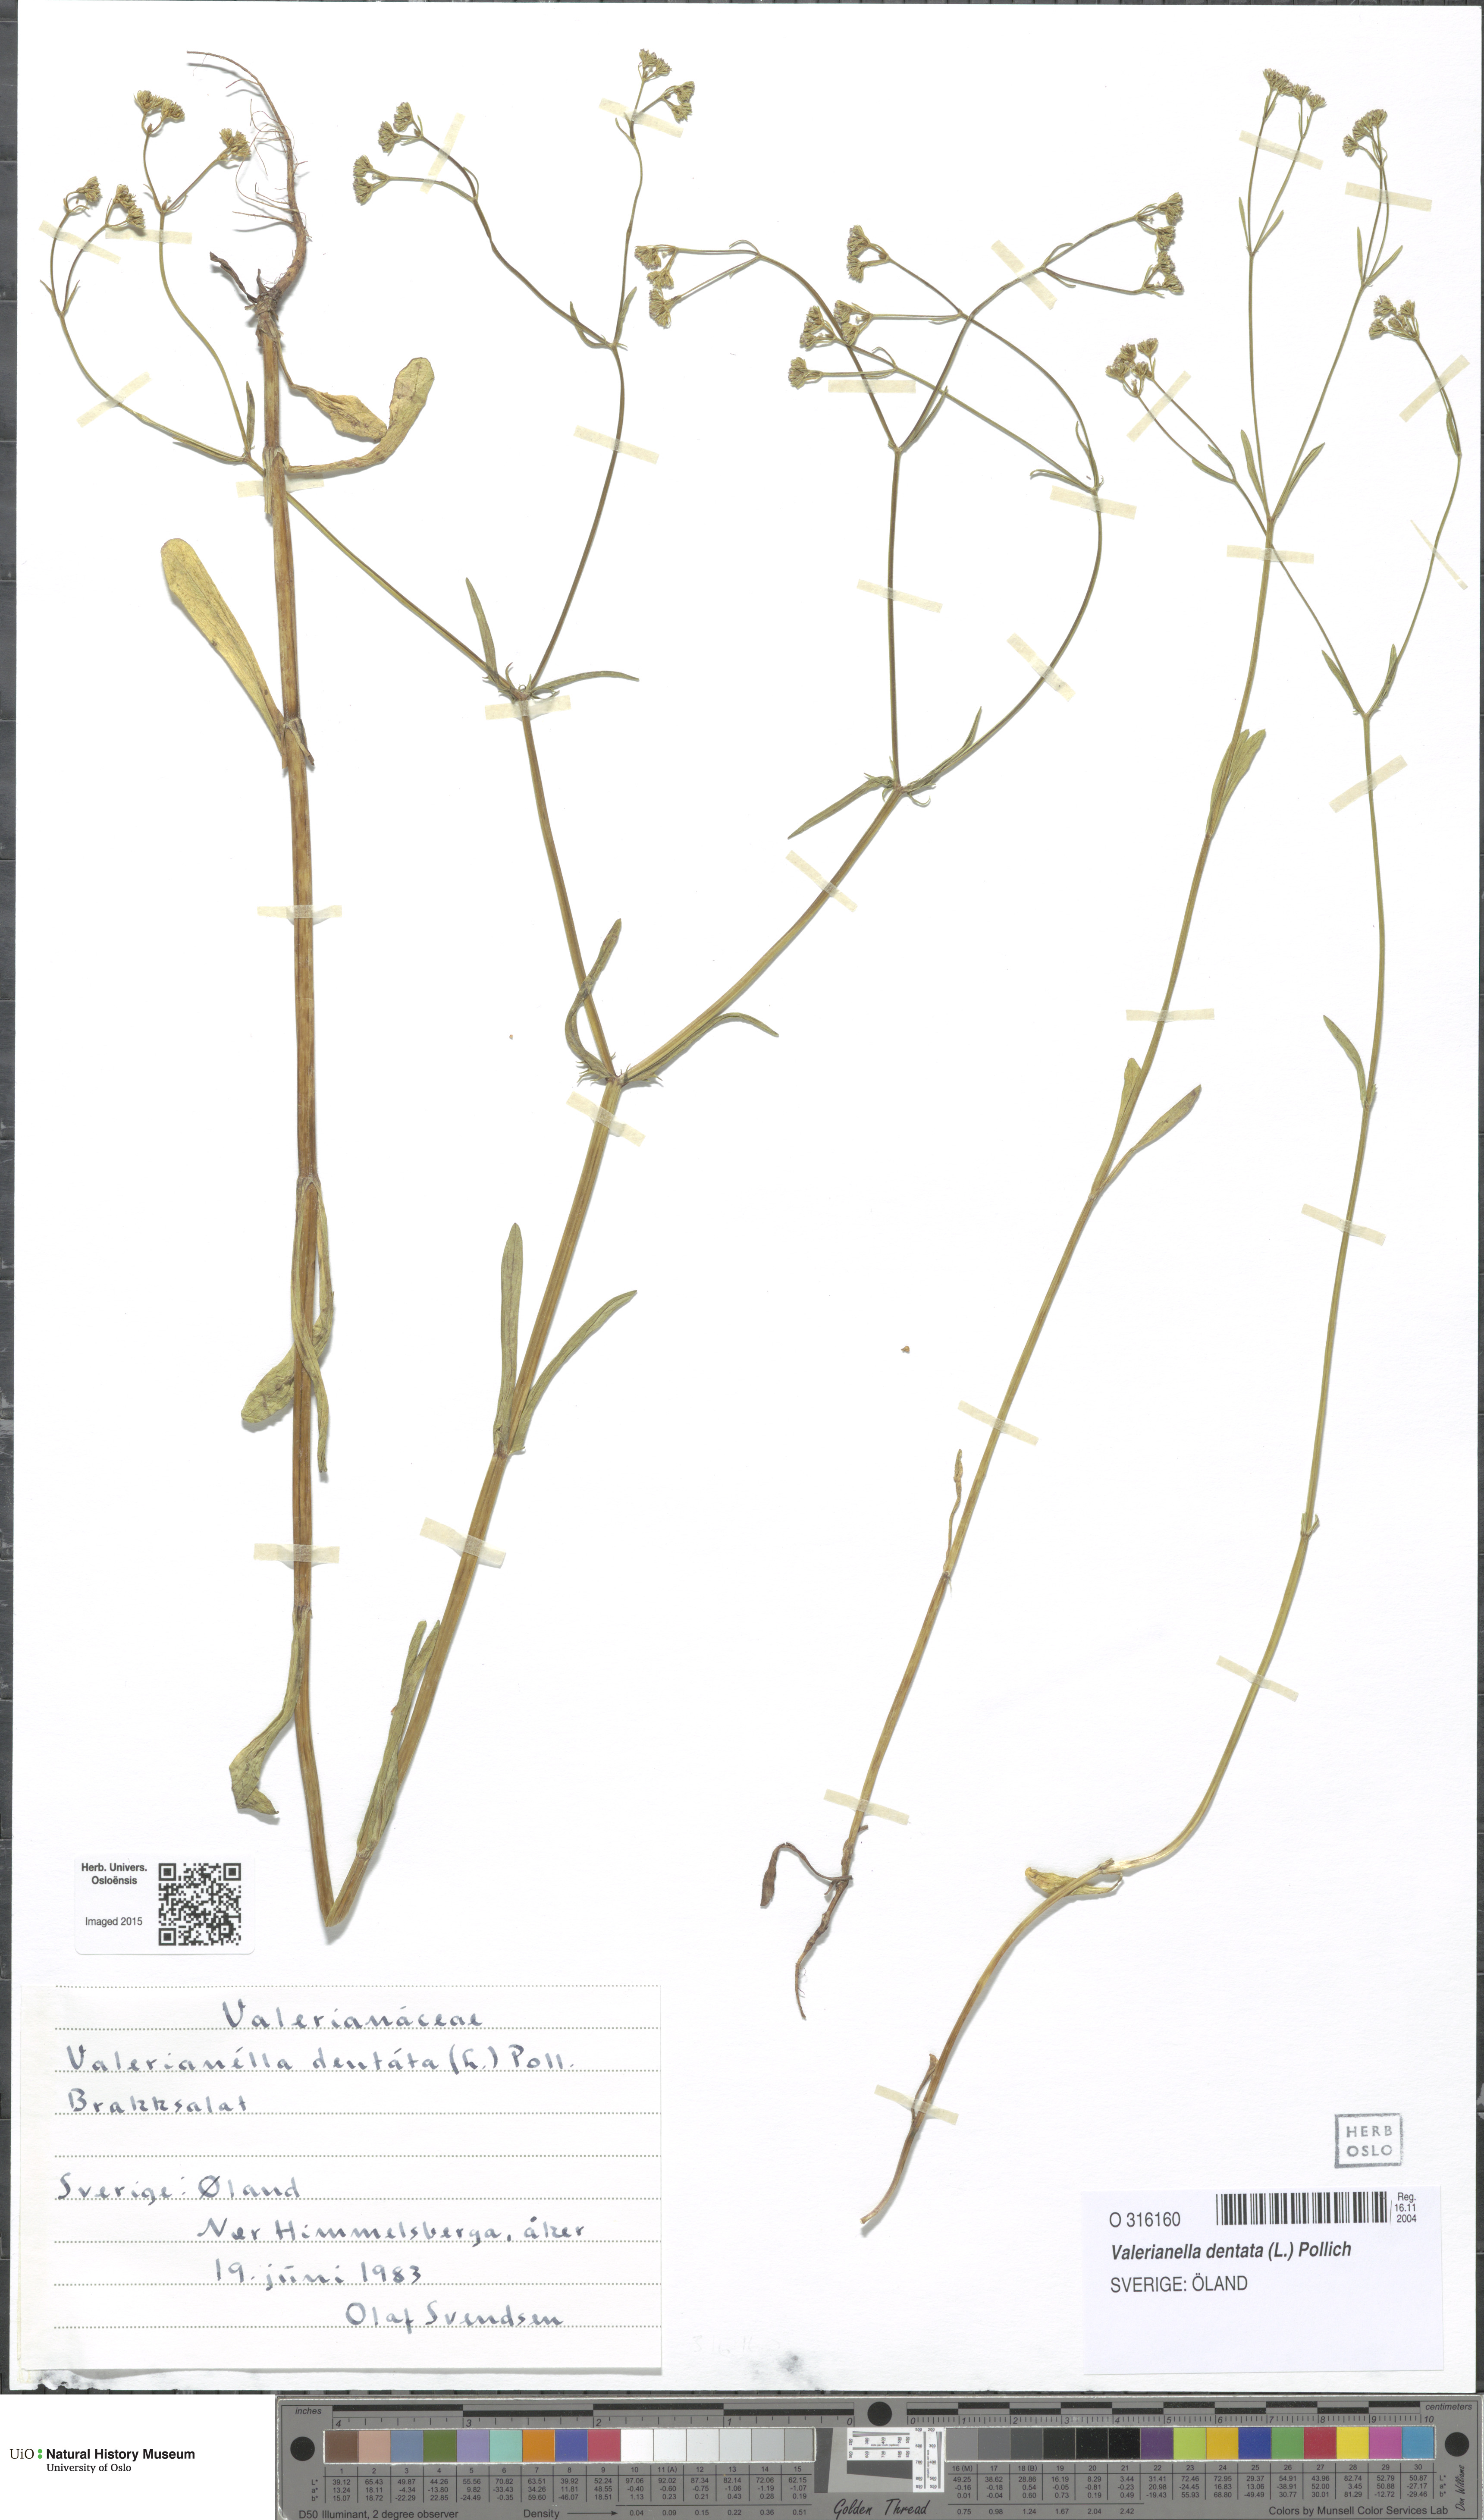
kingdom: Plantae
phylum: Tracheophyta
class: Magnoliopsida
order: Dipsacales
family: Caprifoliaceae
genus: Valerianella
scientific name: Valerianella dentata
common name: Narrow-fruited cornsalad
